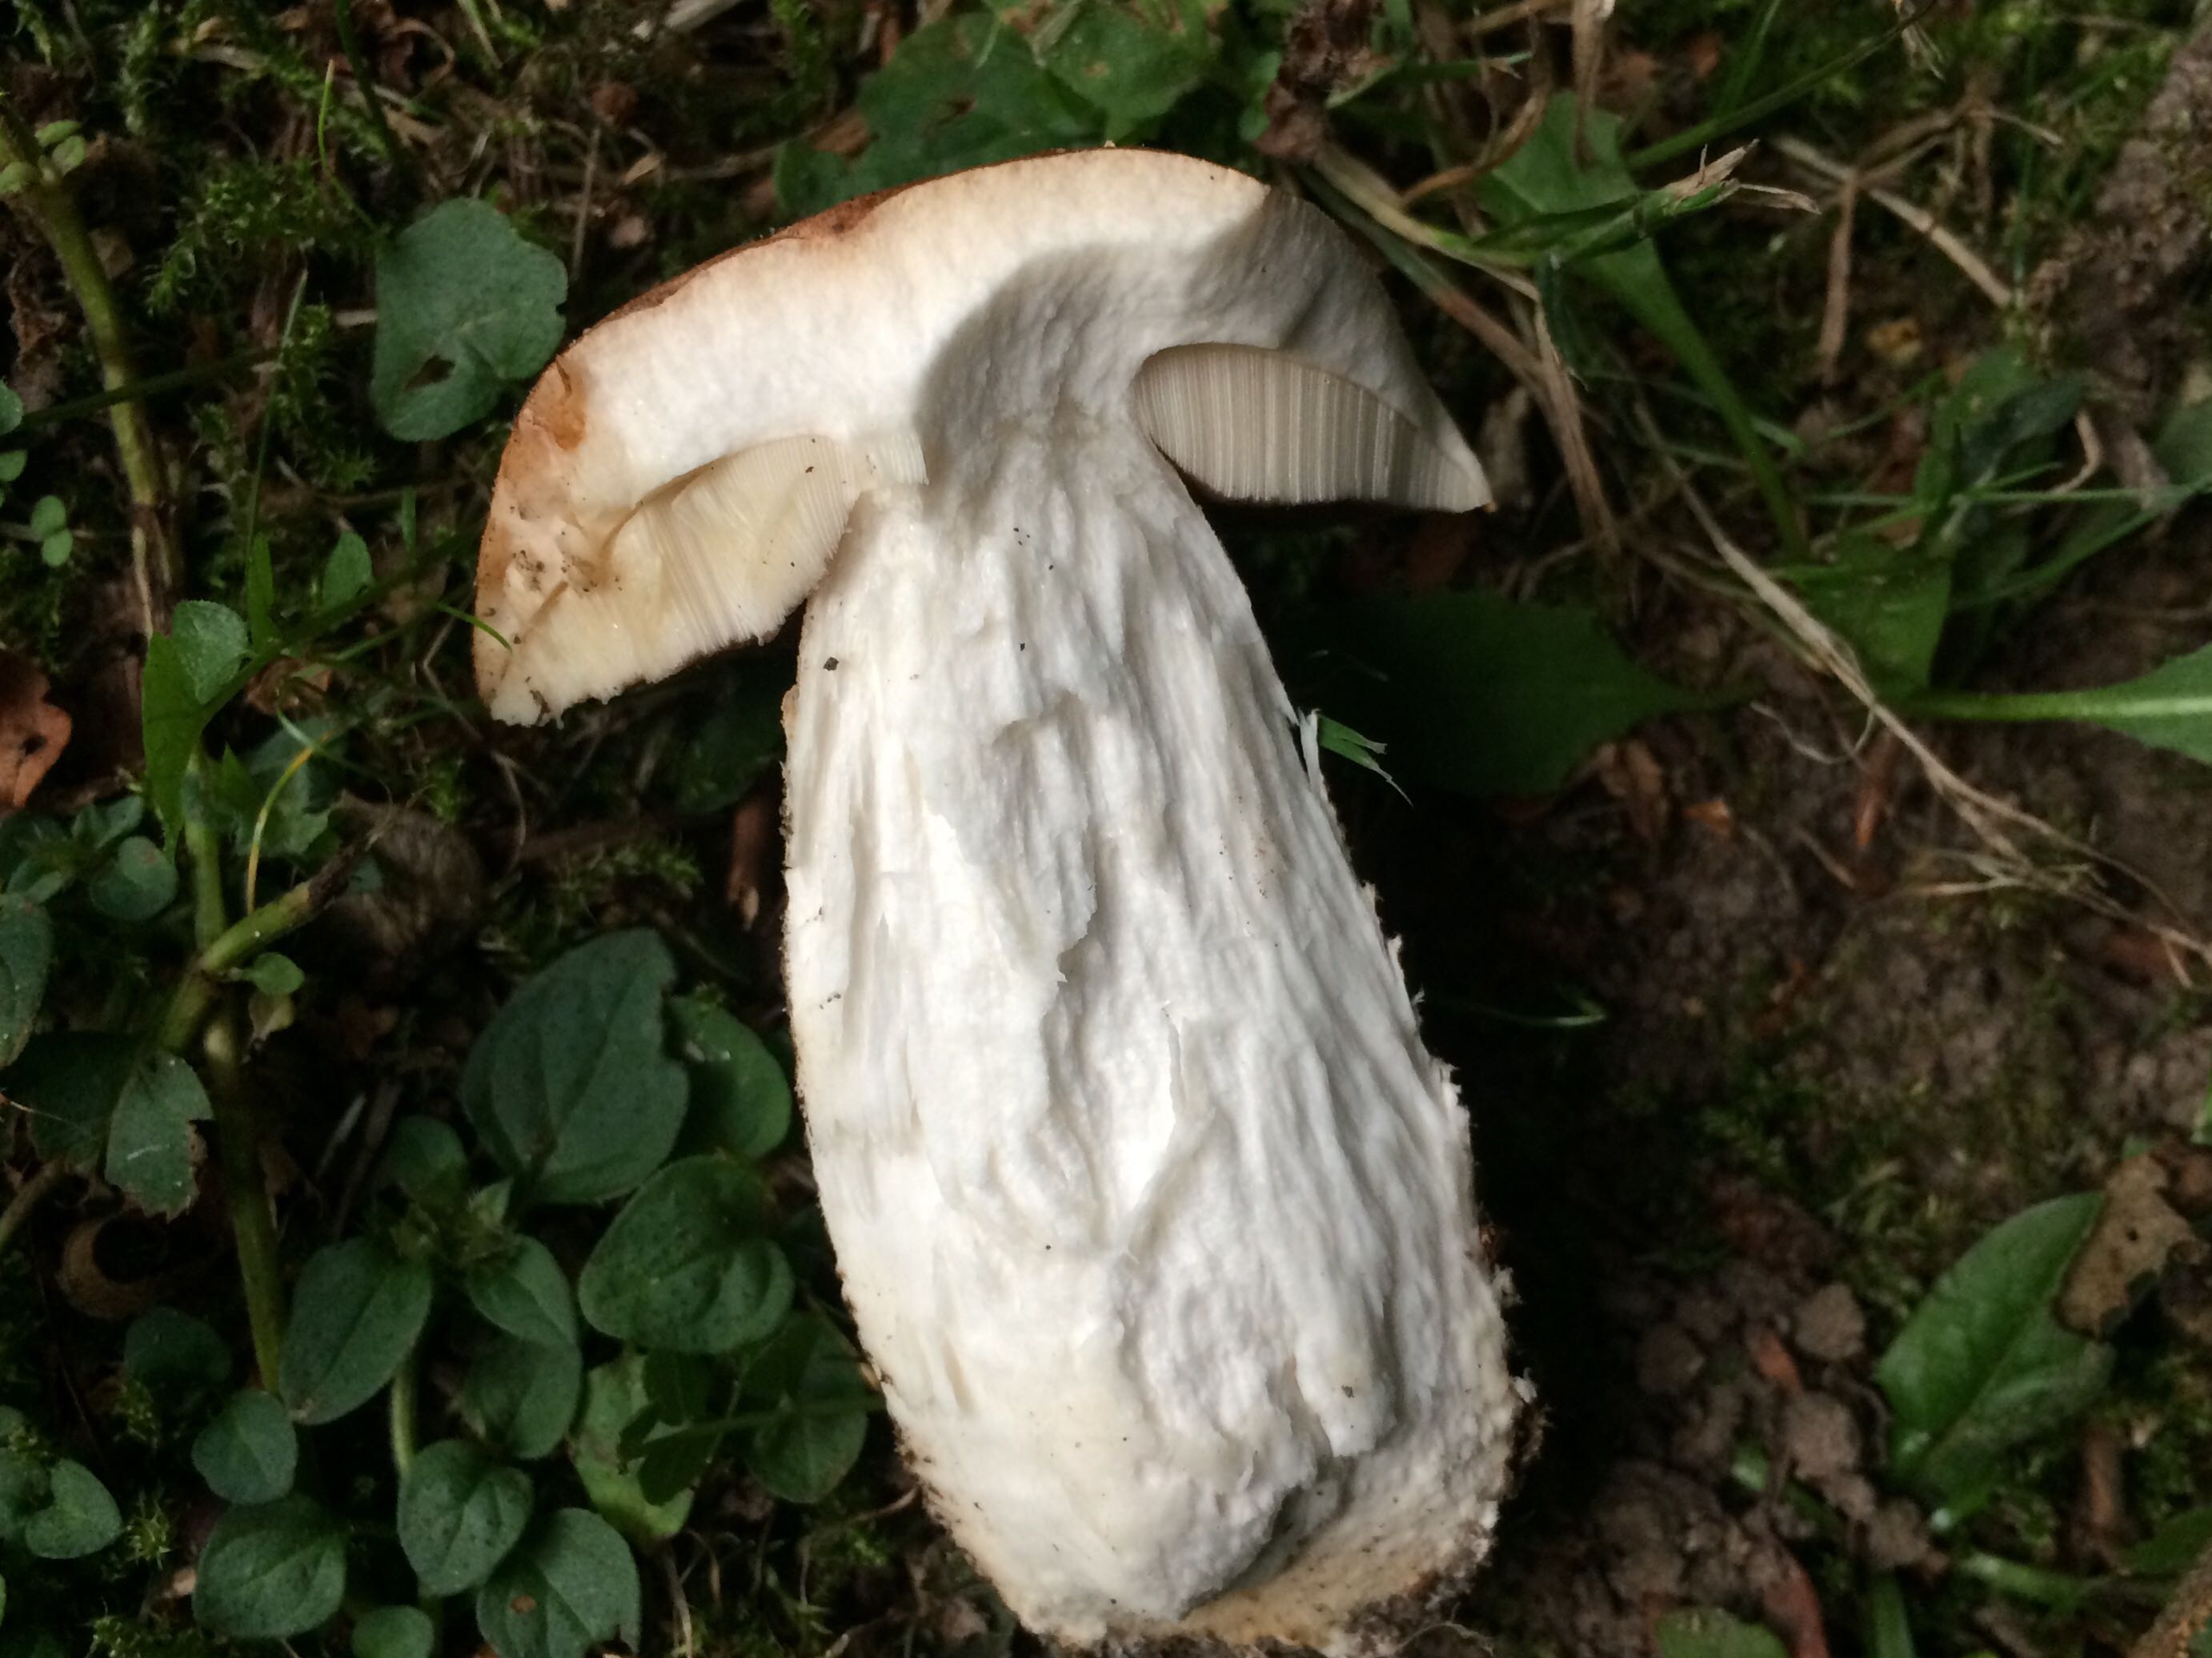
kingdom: Fungi
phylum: Basidiomycota
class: Agaricomycetes
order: Boletales
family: Boletaceae
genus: Leccinum
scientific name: Leccinum scabrum
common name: brun skælrørhat
